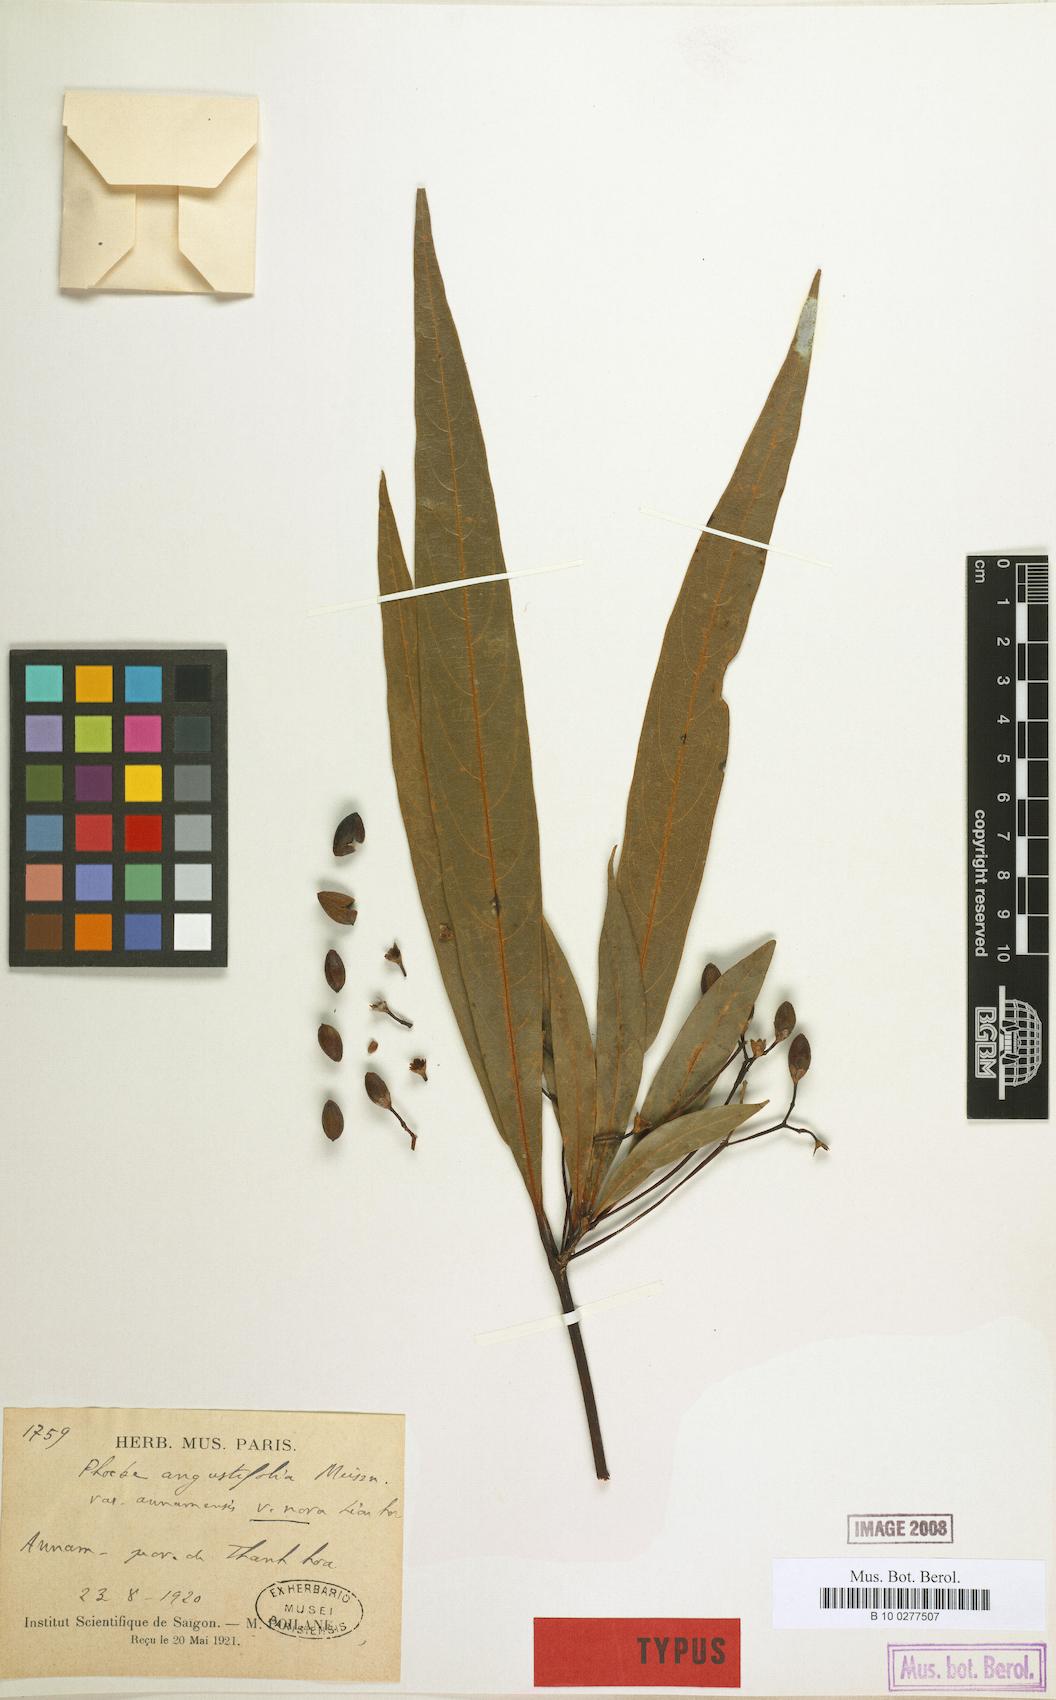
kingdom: Plantae
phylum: Tracheophyta
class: Magnoliopsida
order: Laurales
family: Lauraceae
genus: Phoebe
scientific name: Phoebe angustifolia
